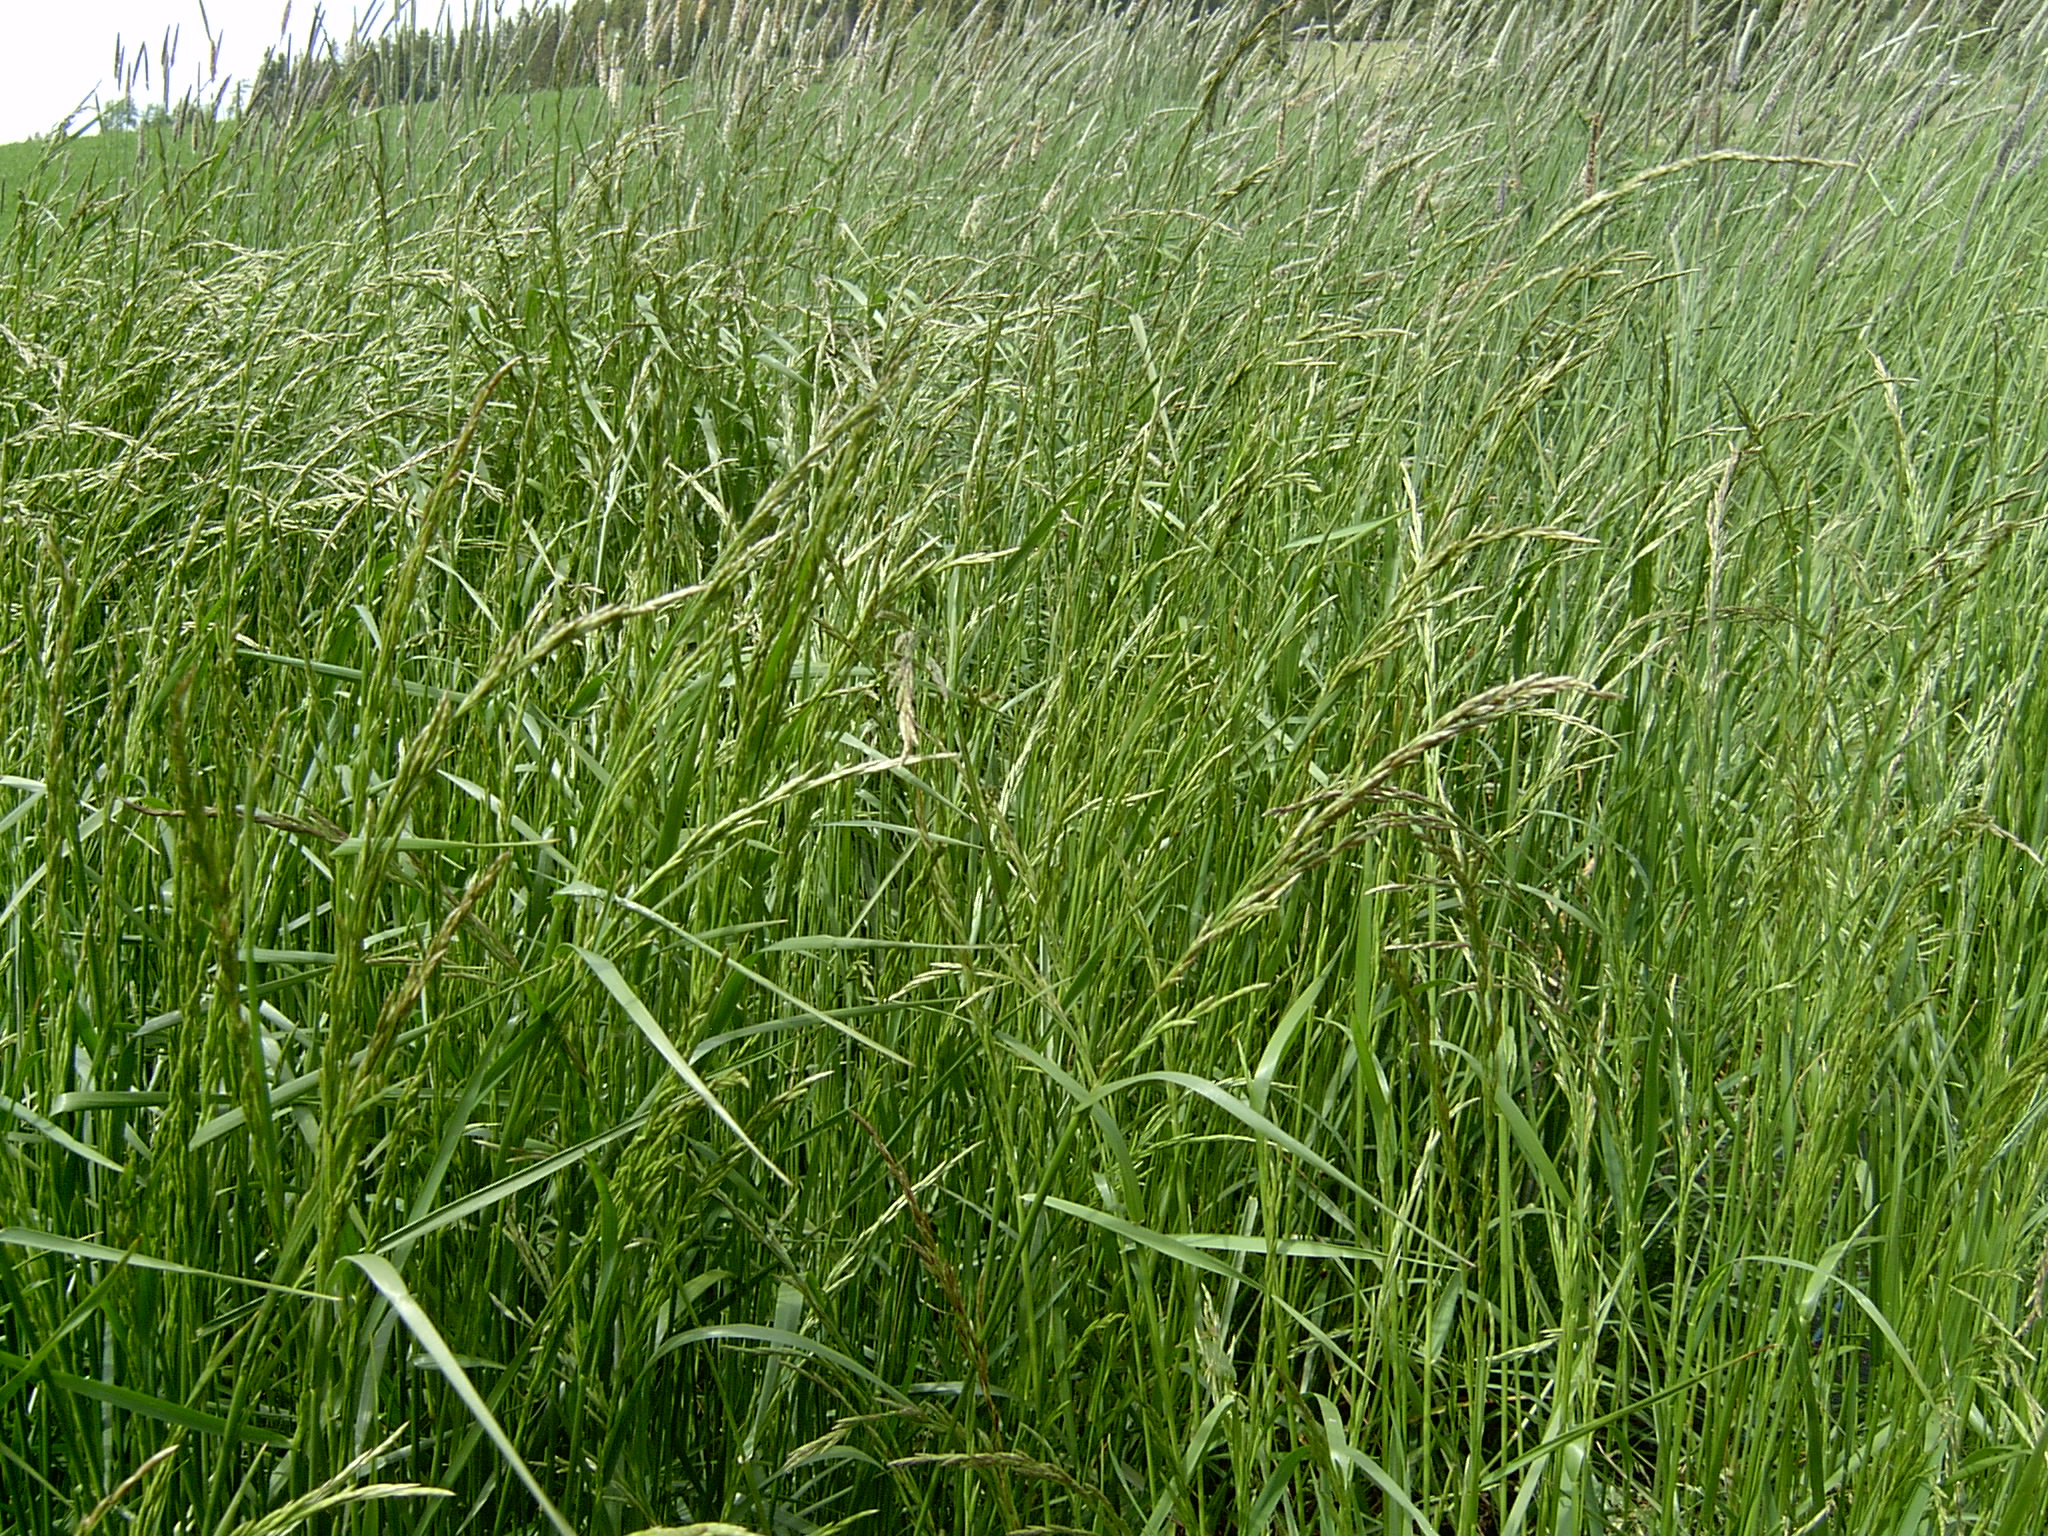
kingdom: Plantae
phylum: Tracheophyta
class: Liliopsida
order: Poales
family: Poaceae
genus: Lolium
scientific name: Lolium pratense
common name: Dover grass
